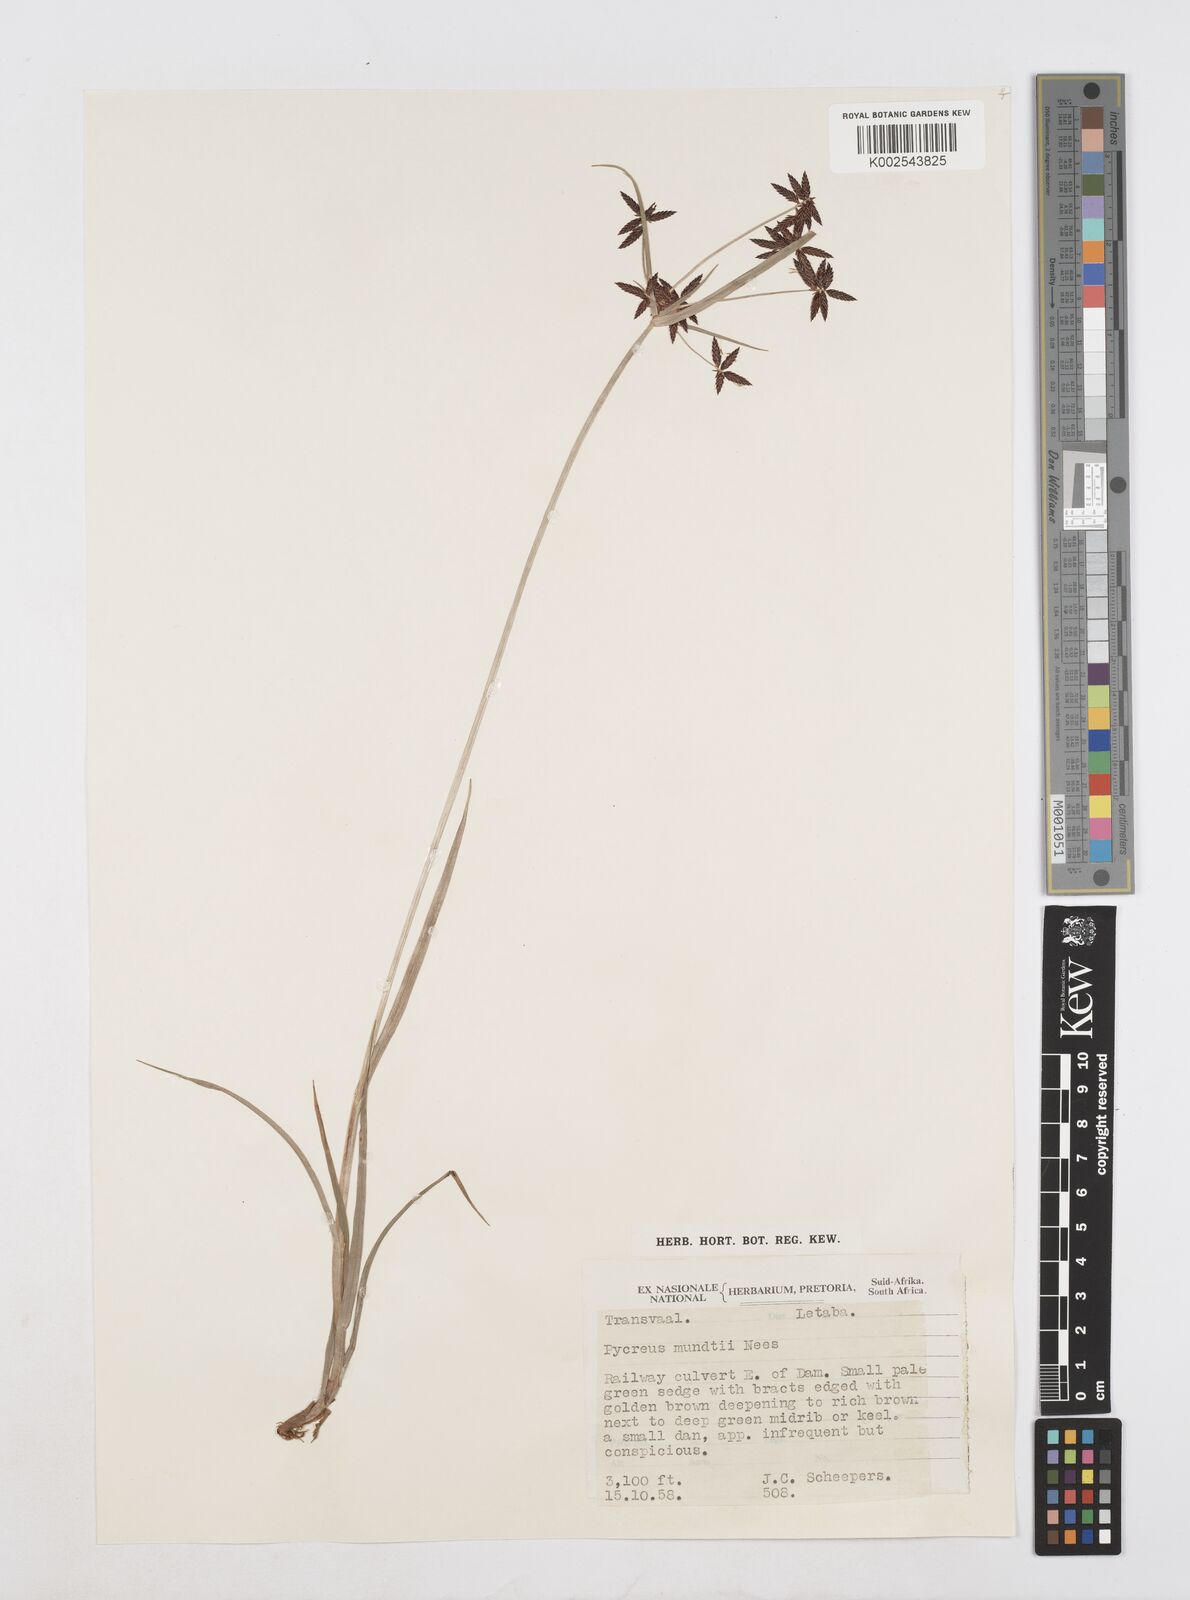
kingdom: Plantae
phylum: Tracheophyta
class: Liliopsida
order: Poales
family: Cyperaceae
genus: Cyperus
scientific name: Cyperus mundii
